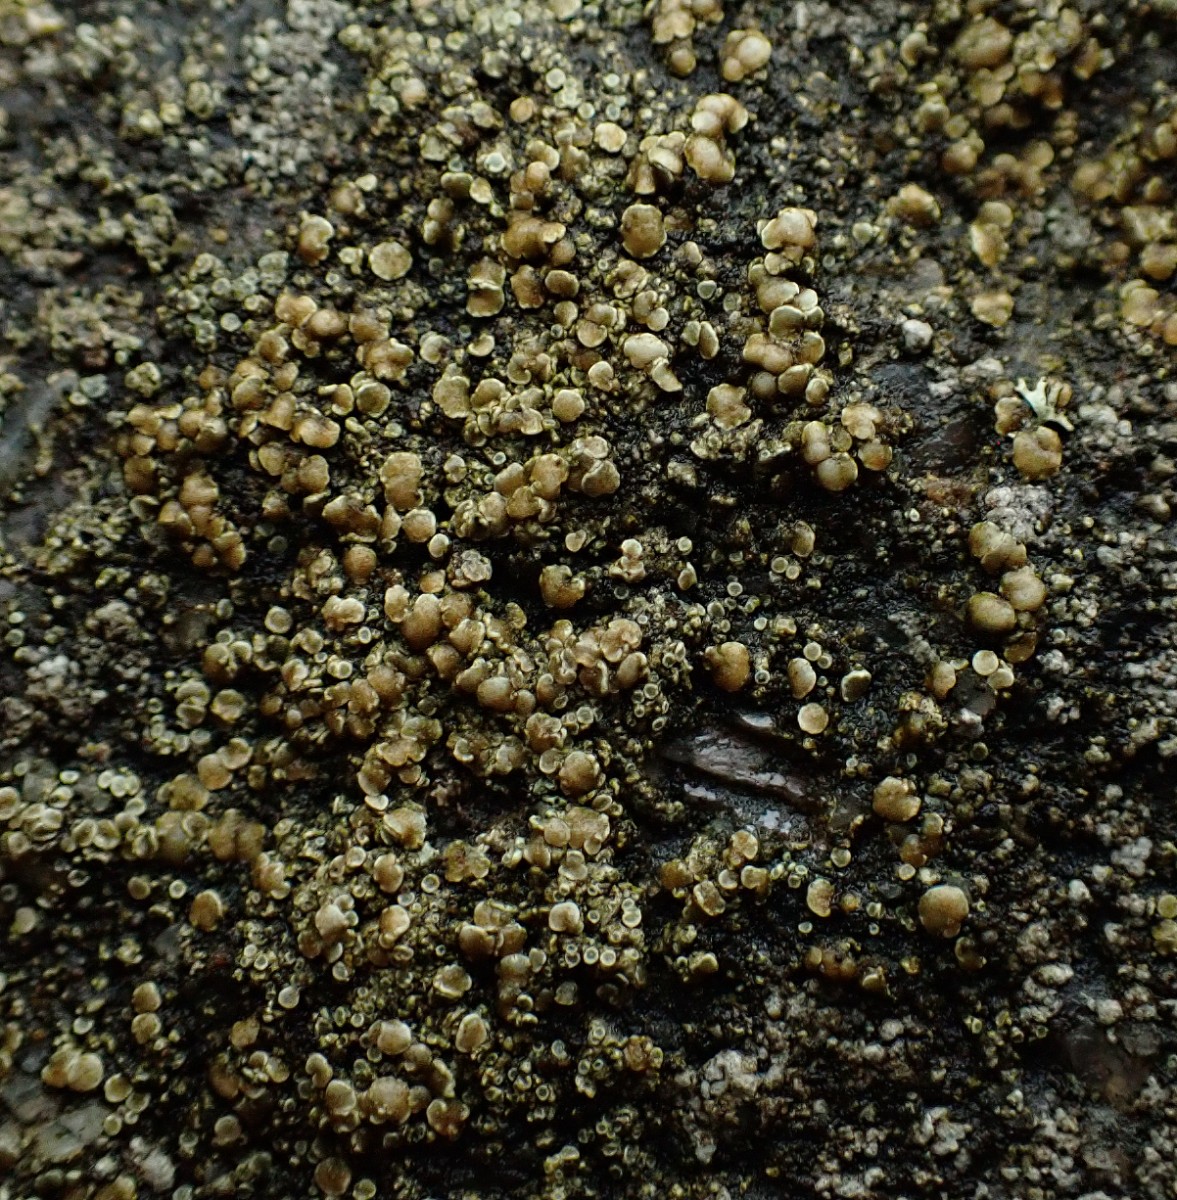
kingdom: Fungi
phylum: Ascomycota
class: Lecanoromycetes
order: Lecanorales
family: Lecanoraceae
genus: Lecanora
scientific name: Lecanora polytropa
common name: bleggrøn kantskivelav
